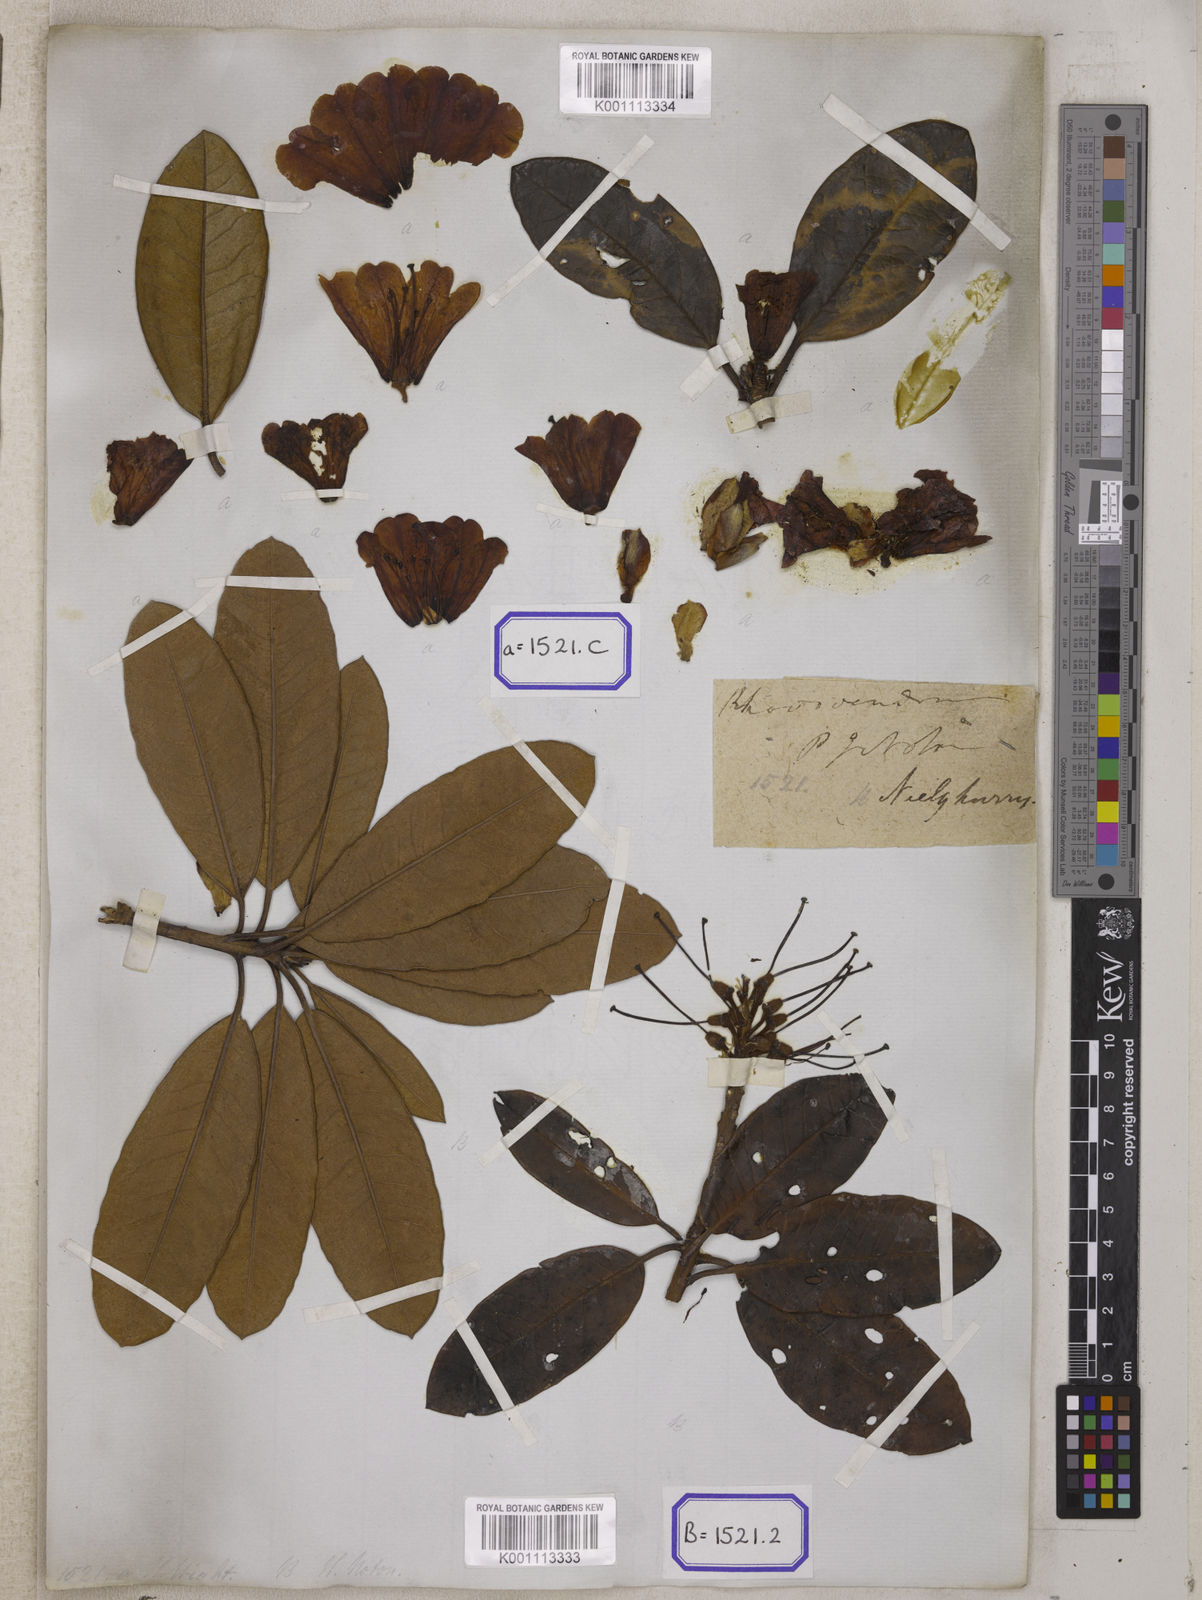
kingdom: Plantae
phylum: Tracheophyta
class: Magnoliopsida
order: Ericales
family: Ericaceae
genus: Rhododendron
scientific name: Rhododendron campanulatum
